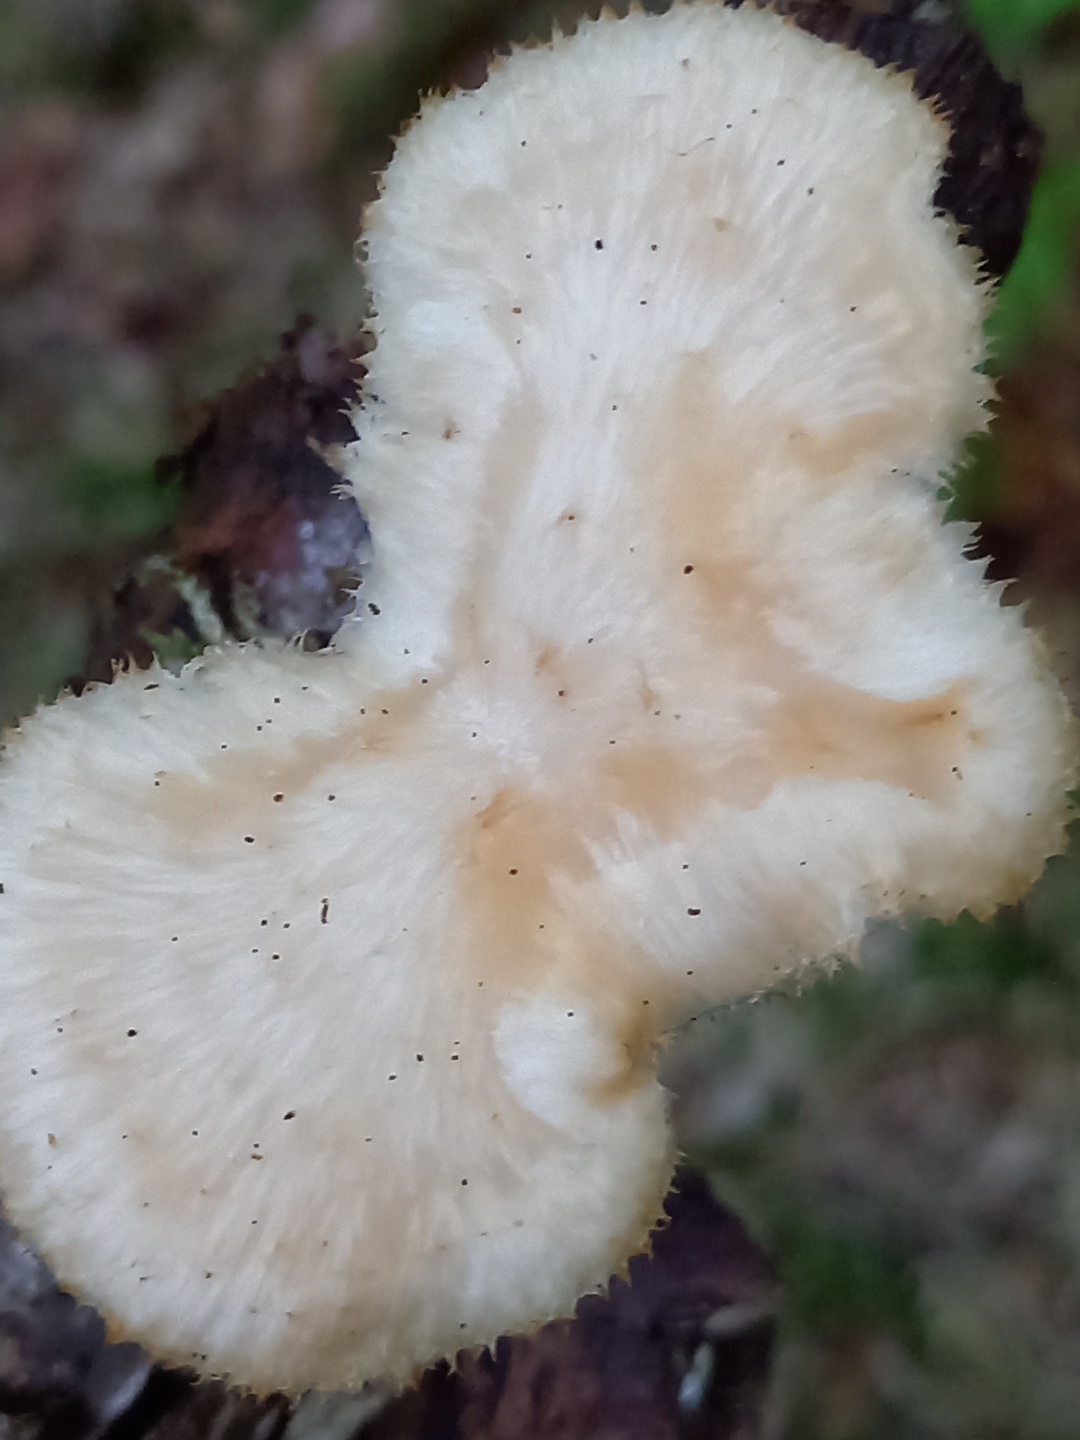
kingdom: Fungi
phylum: Basidiomycota
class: Agaricomycetes
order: Polyporales
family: Polyporaceae
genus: Polyporus
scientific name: Polyporus tuberaster
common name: knoldet stilkporesvamp
